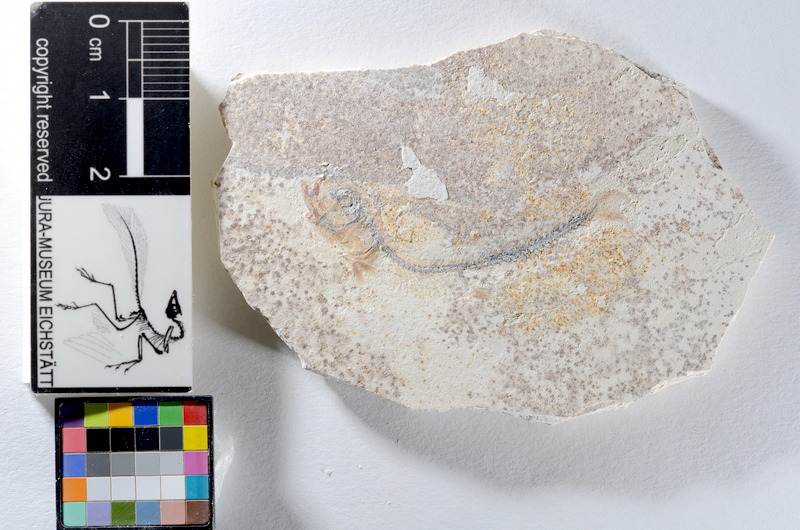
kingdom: Animalia
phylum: Chordata
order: Salmoniformes
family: Orthogonikleithridae
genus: Orthogonikleithrus
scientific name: Orthogonikleithrus hoelli
